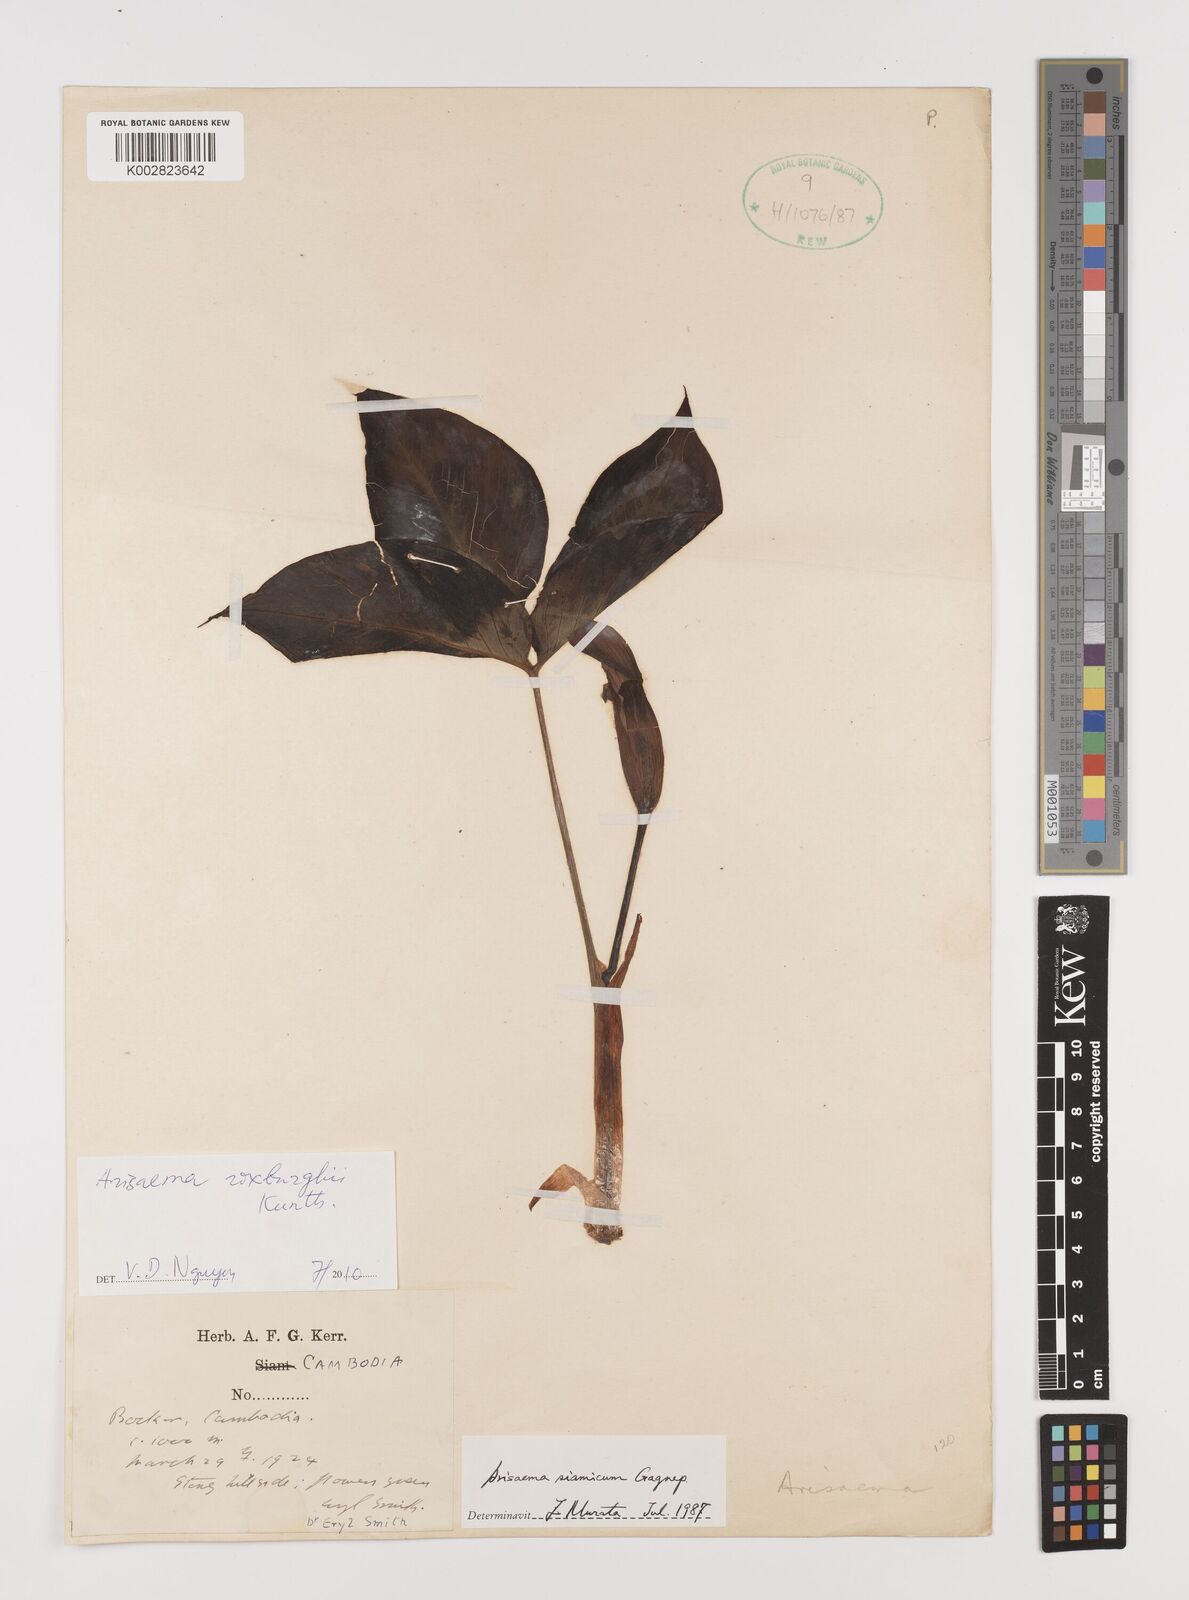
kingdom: Plantae
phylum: Tracheophyta
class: Liliopsida
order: Alismatales
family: Araceae
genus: Arisaema
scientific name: Arisaema siamicum
